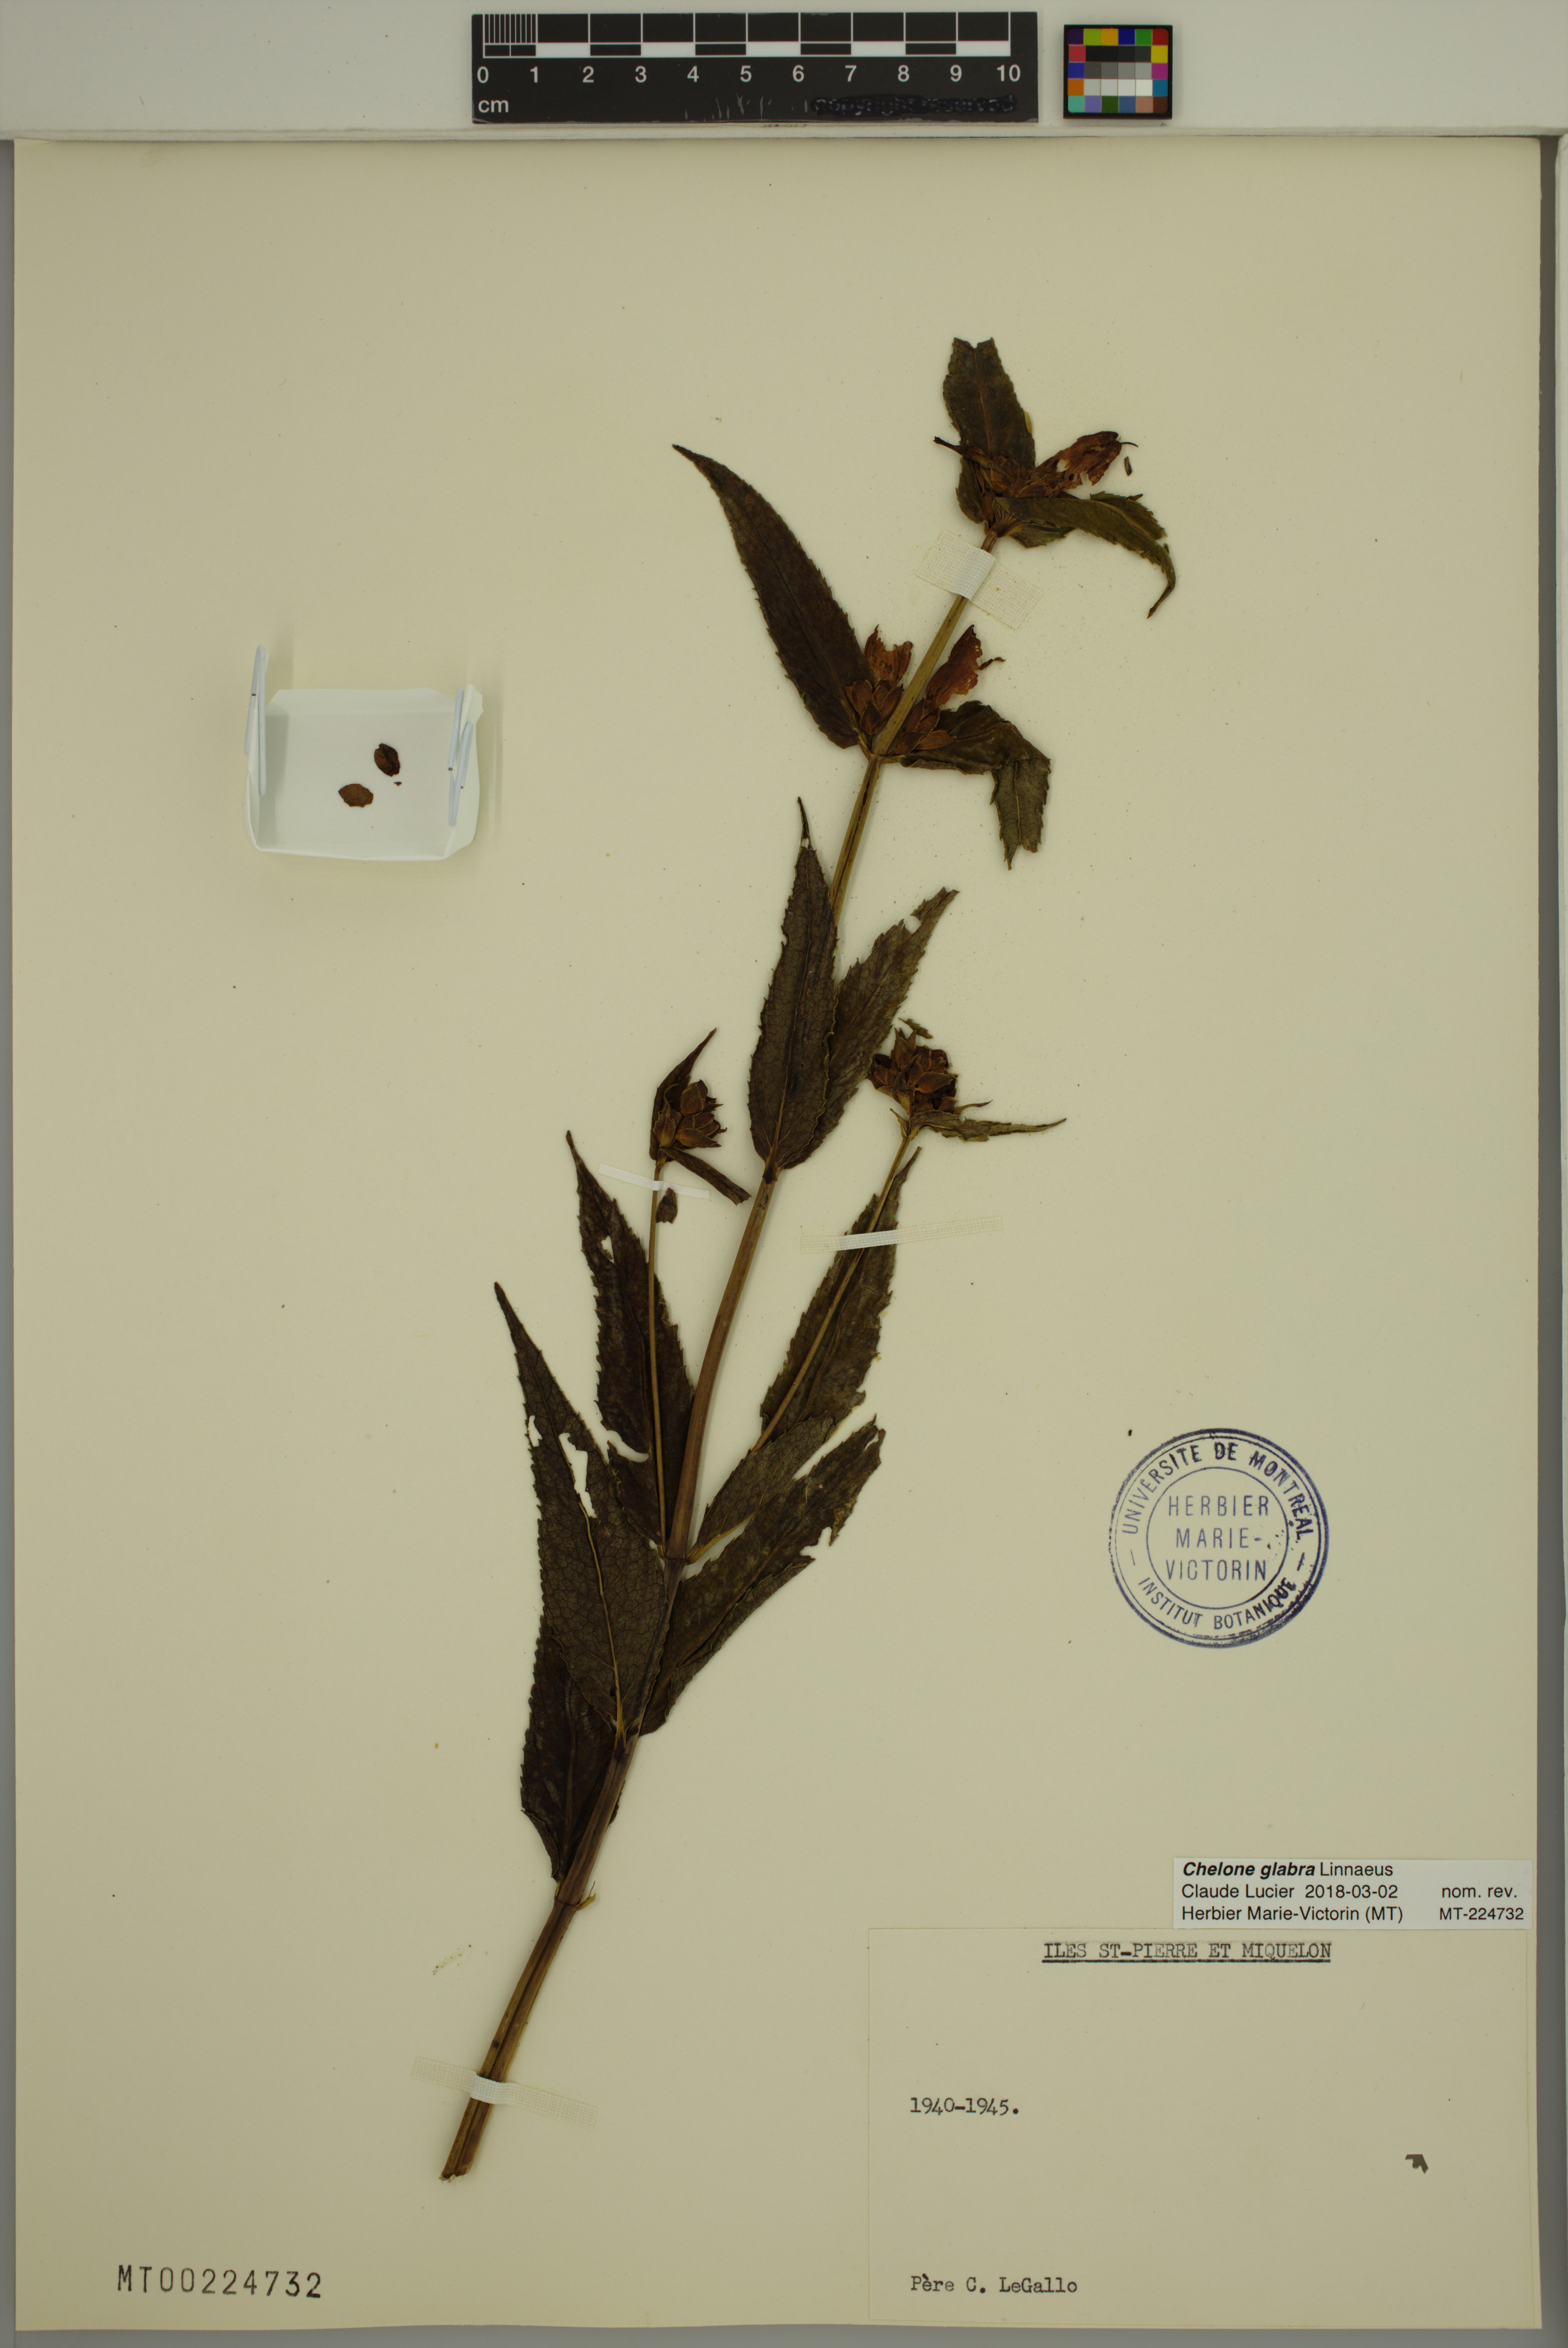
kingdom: Plantae
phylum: Tracheophyta
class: Magnoliopsida
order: Lamiales
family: Plantaginaceae
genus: Chelone
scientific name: Chelone glabra
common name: Snakehead
